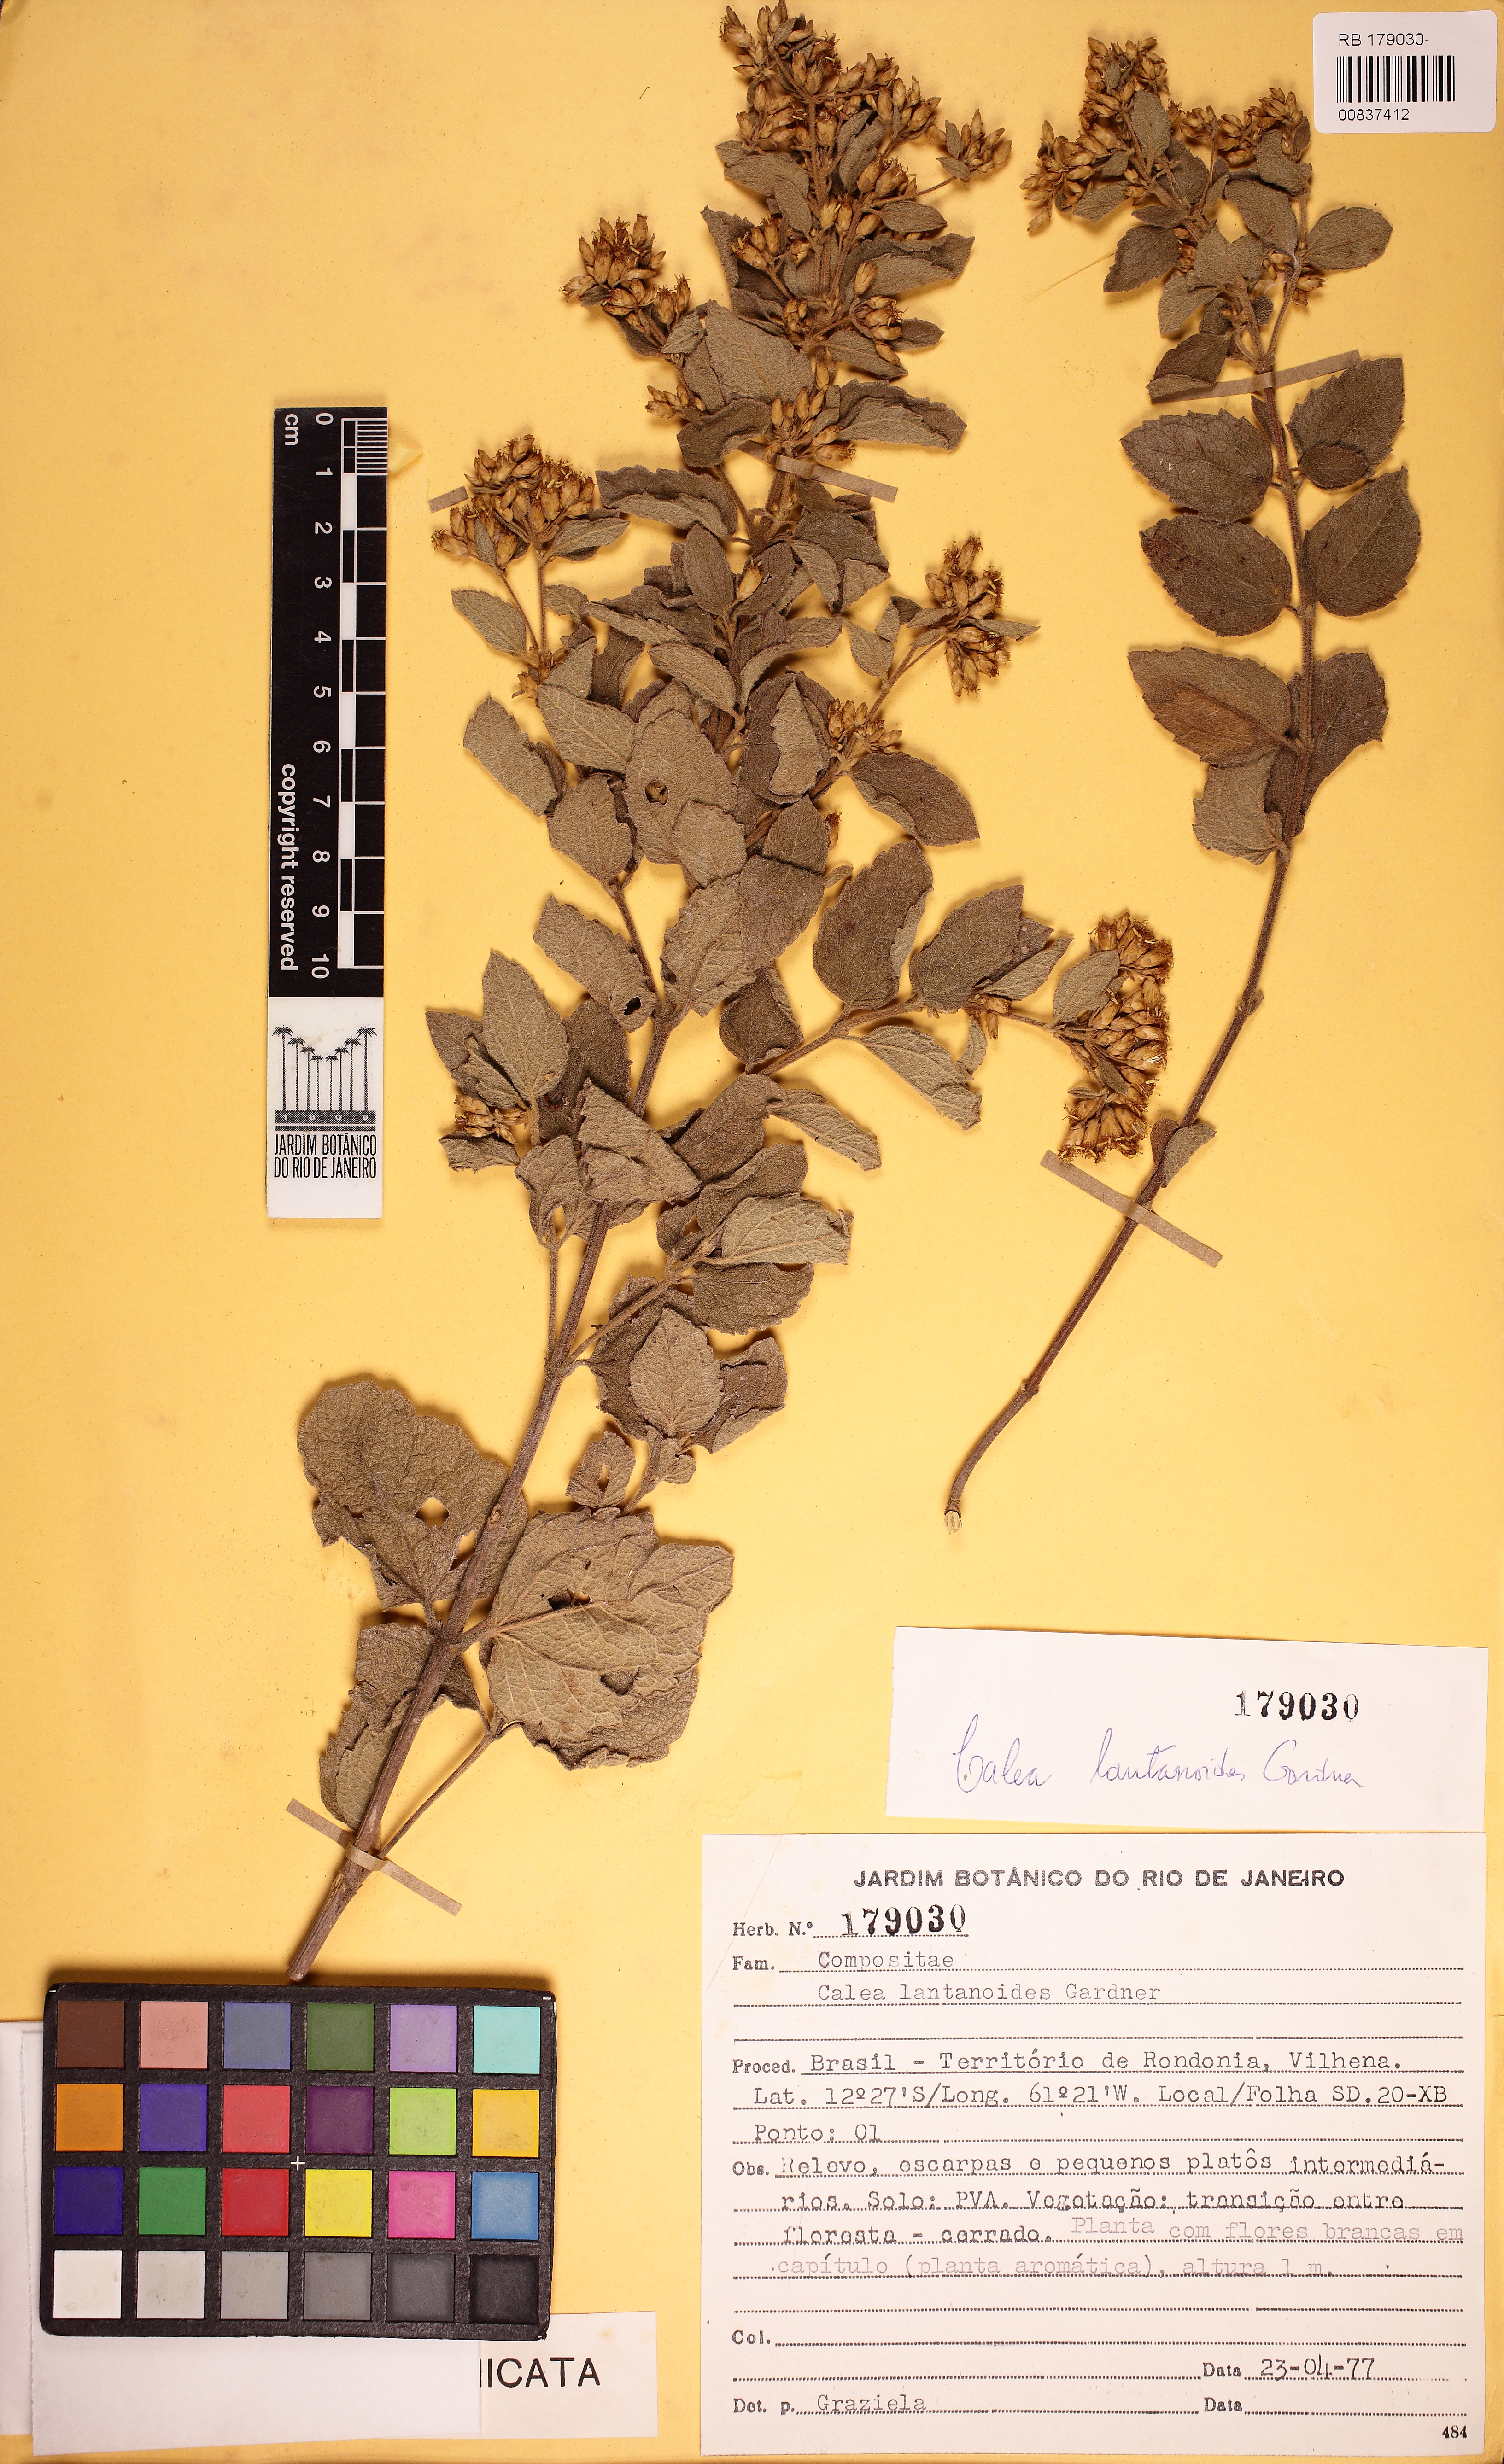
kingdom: Plantae
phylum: Tracheophyta
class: Magnoliopsida
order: Asterales
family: Asteraceae
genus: Calea
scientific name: Calea lantanoides
